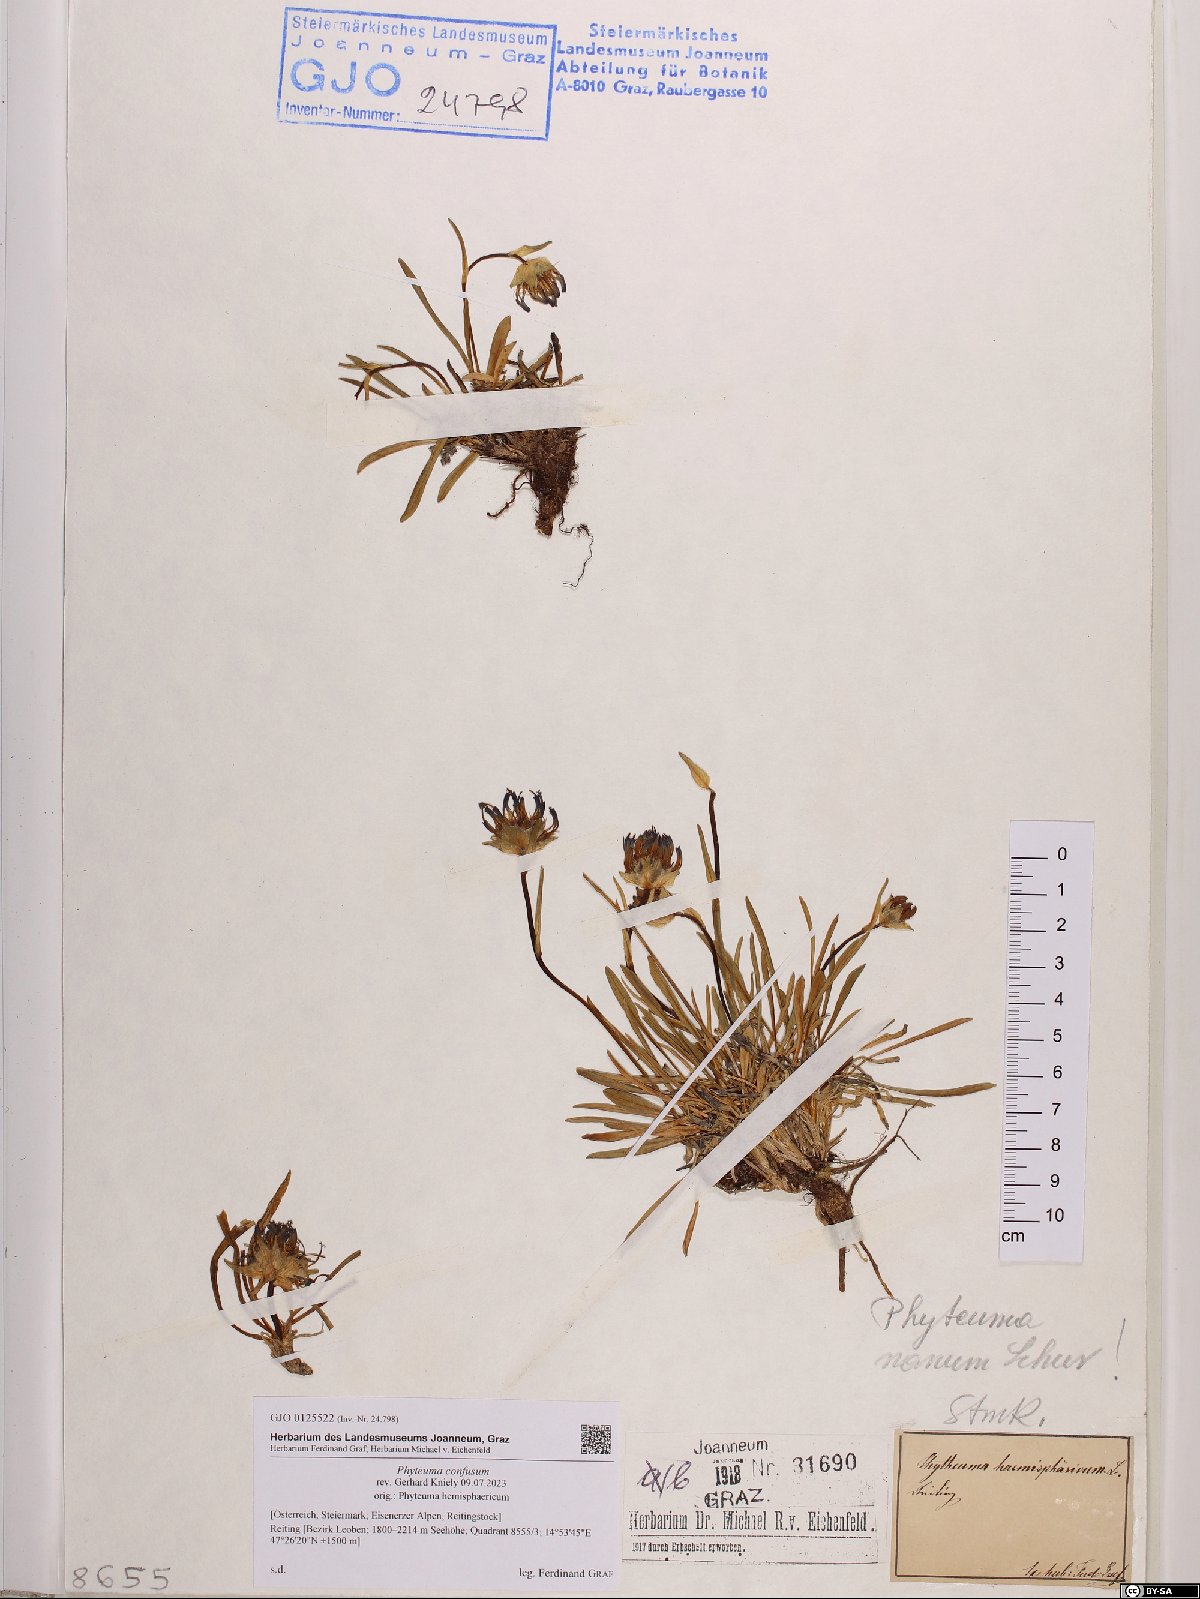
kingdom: Plantae
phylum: Tracheophyta
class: Magnoliopsida
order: Asterales
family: Campanulaceae
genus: Phyteuma
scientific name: Phyteuma confusum
